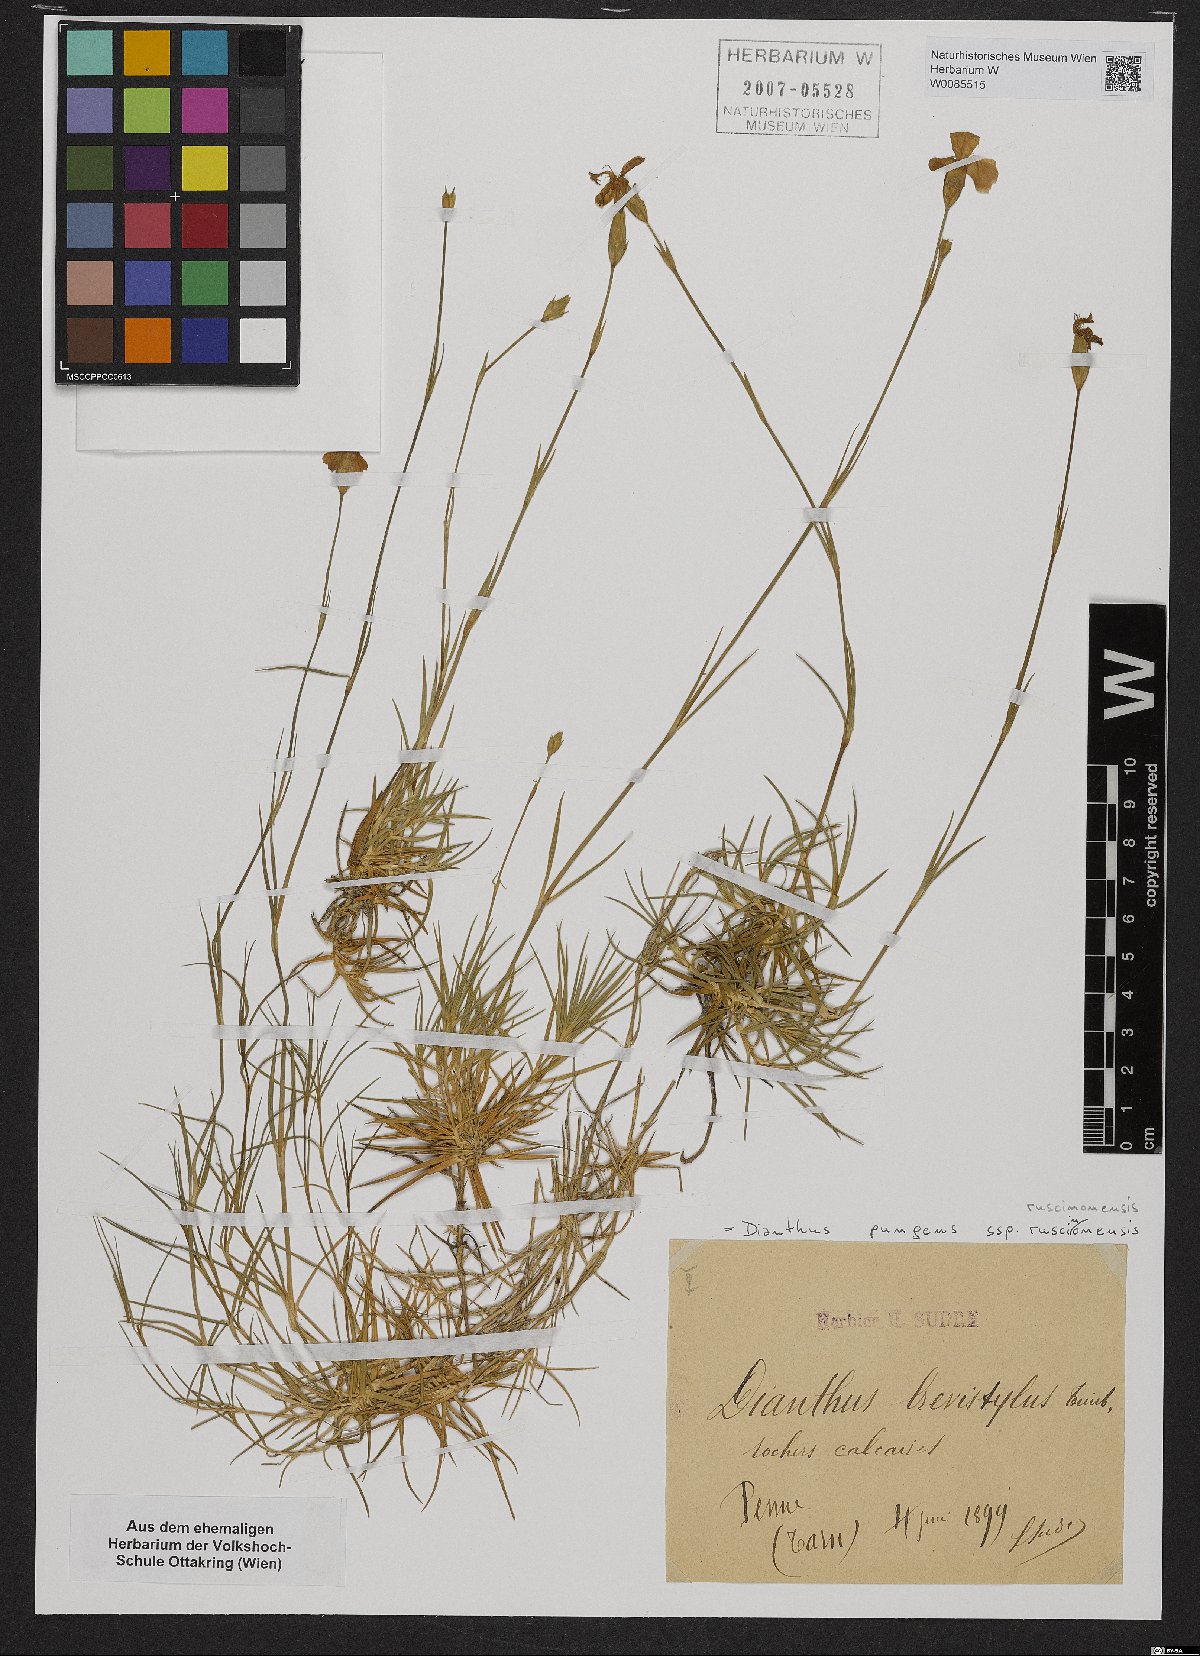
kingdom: Plantae
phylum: Tracheophyta
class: Magnoliopsida
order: Caryophyllales
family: Caryophyllaceae
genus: Dianthus
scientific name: Dianthus pungens
